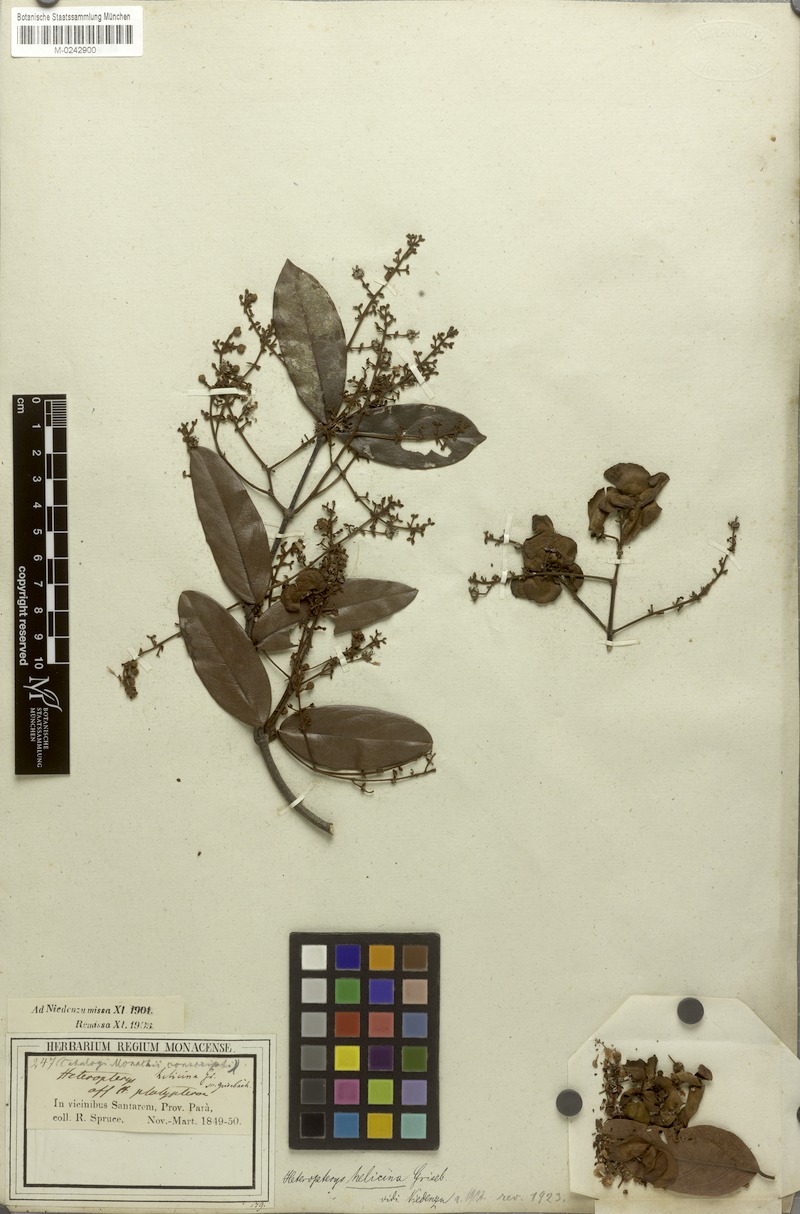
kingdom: Plantae
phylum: Tracheophyta
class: Magnoliopsida
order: Malpighiales
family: Malpighiaceae
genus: Heteropterys
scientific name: Heteropterys orinocensis
